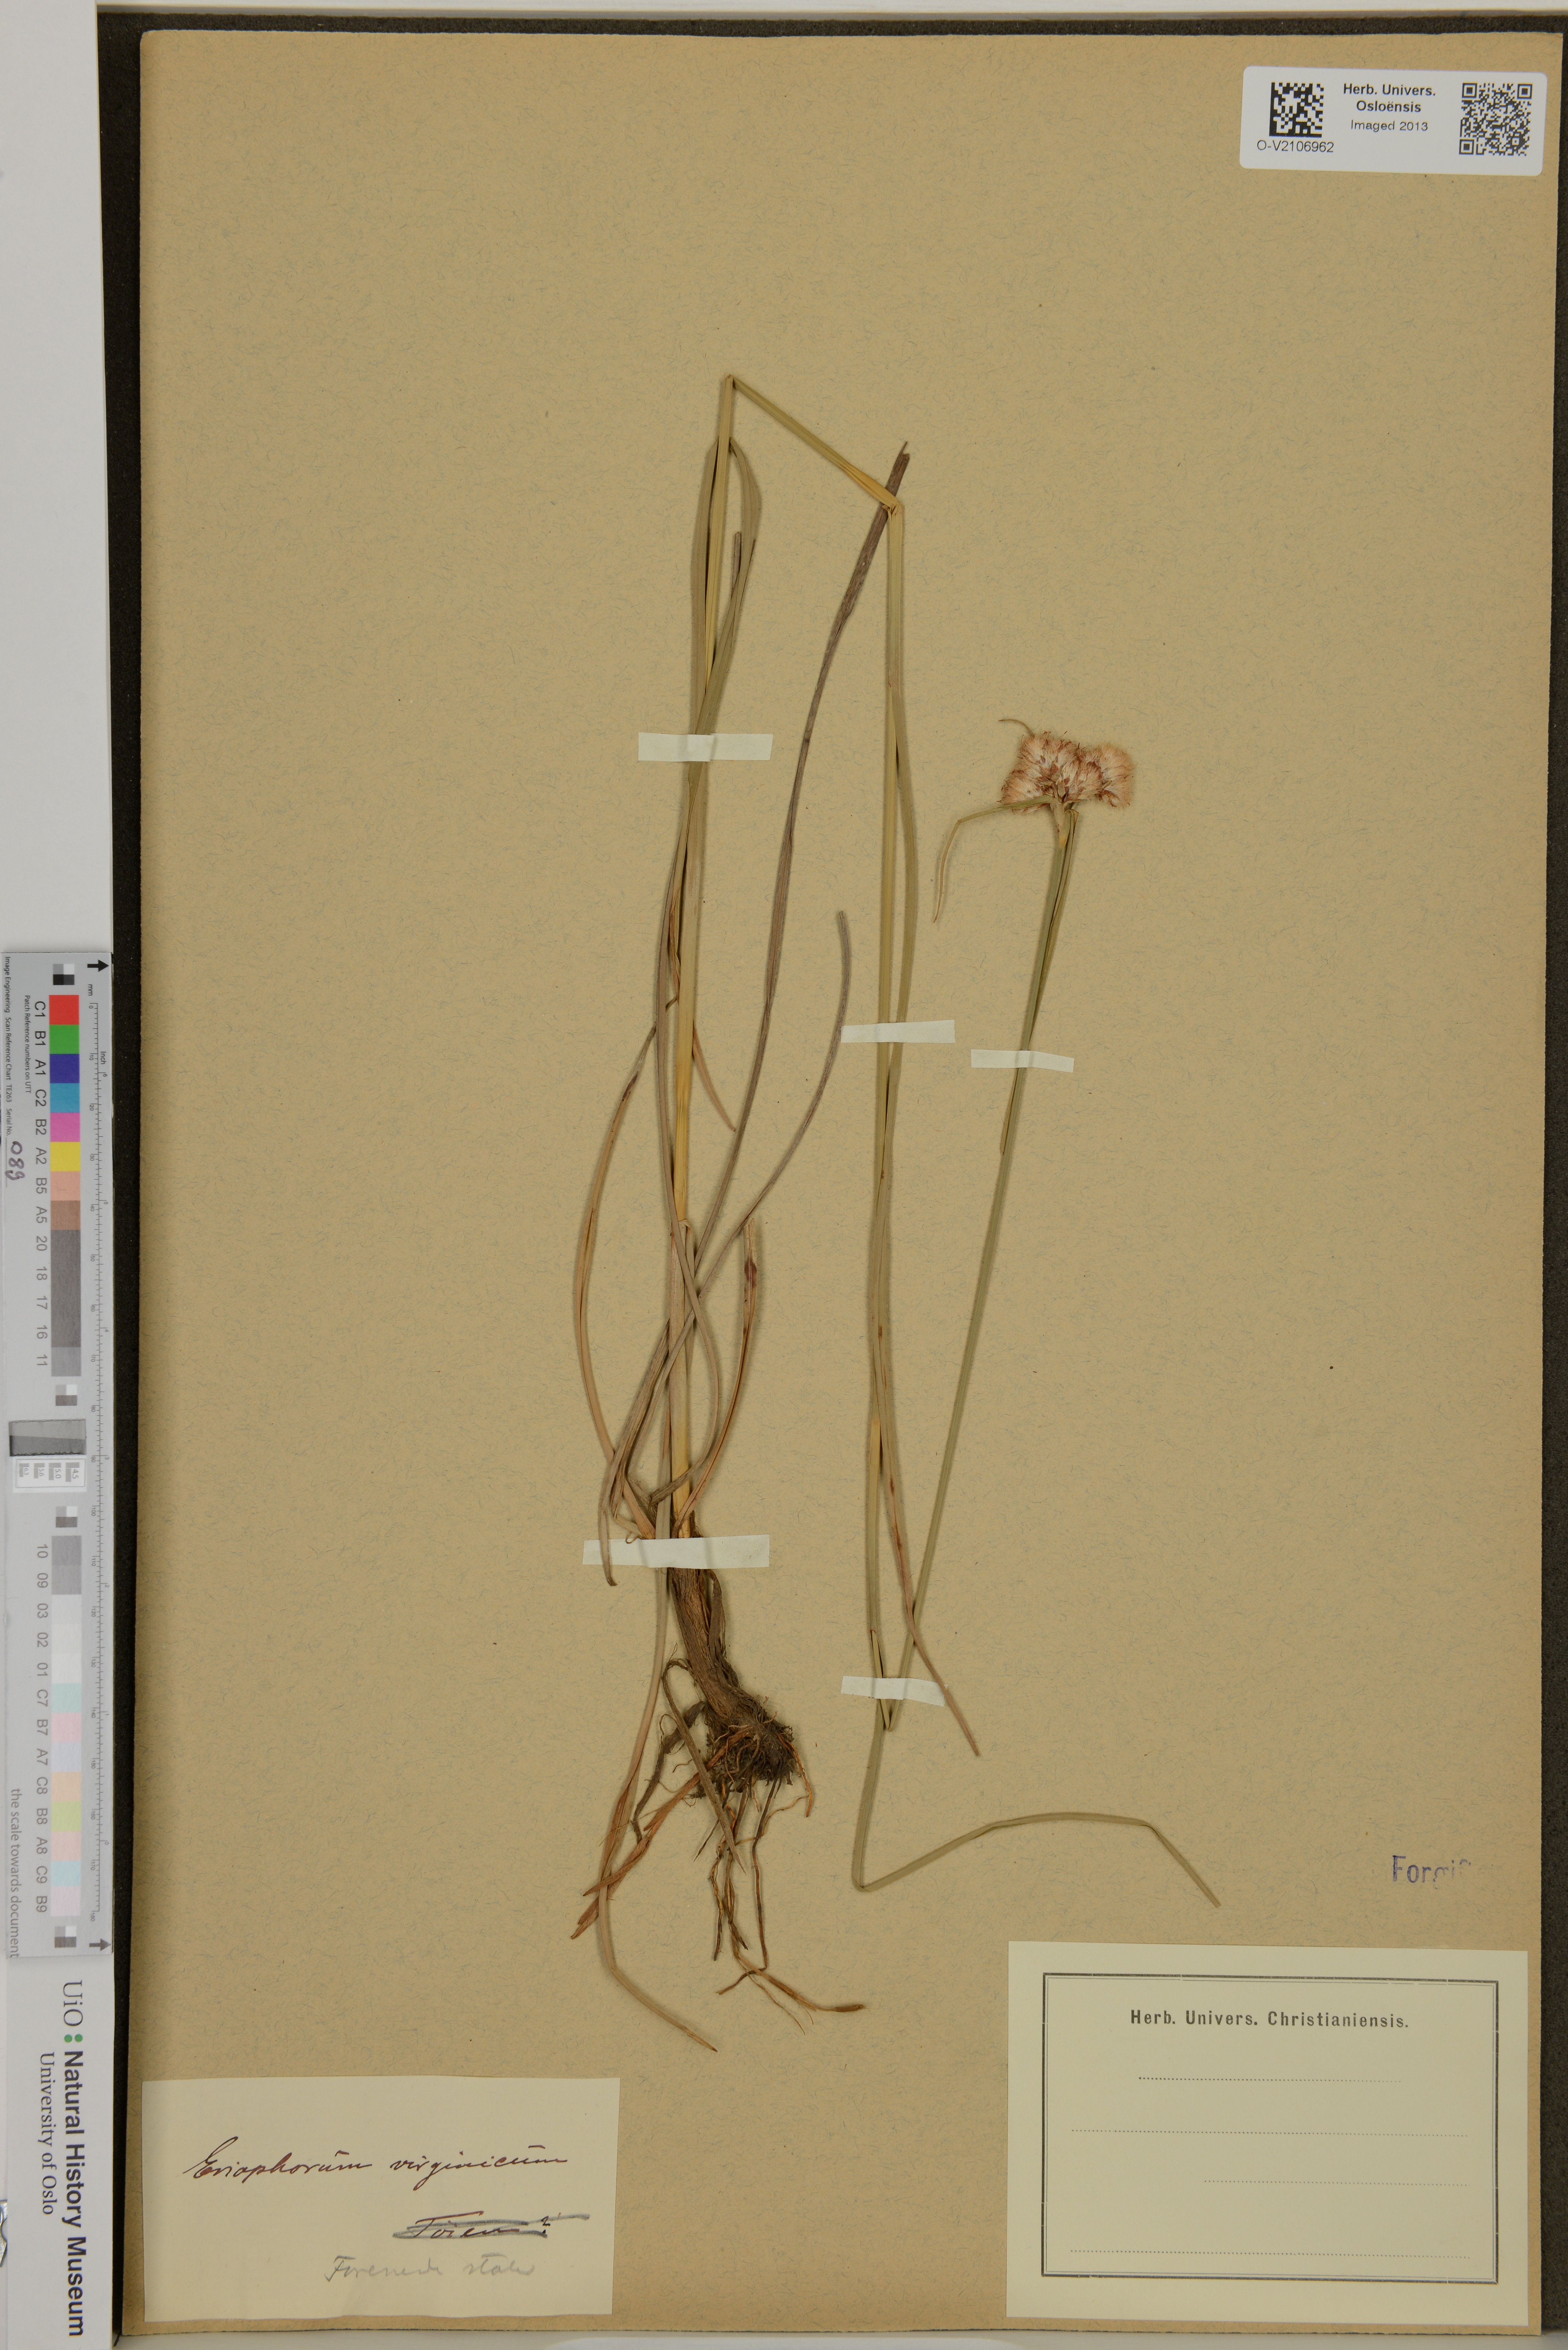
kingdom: Plantae
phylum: Tracheophyta
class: Liliopsida
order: Poales
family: Cyperaceae
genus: Eriophorum
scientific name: Eriophorum virginicum
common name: Tawny cottongrass
